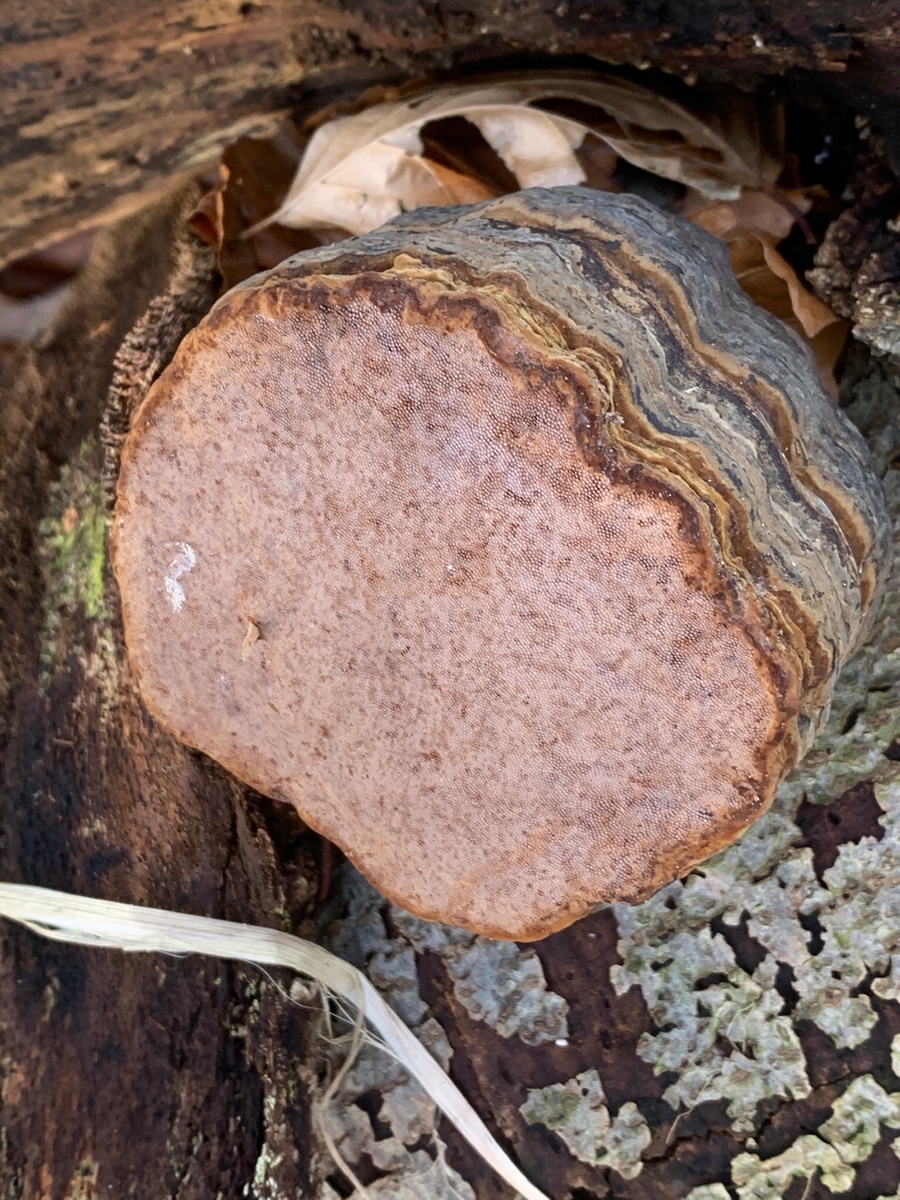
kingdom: Fungi
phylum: Basidiomycota
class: Agaricomycetes
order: Polyporales
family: Polyporaceae
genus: Fomes
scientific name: Fomes fomentarius
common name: tøndersvamp
